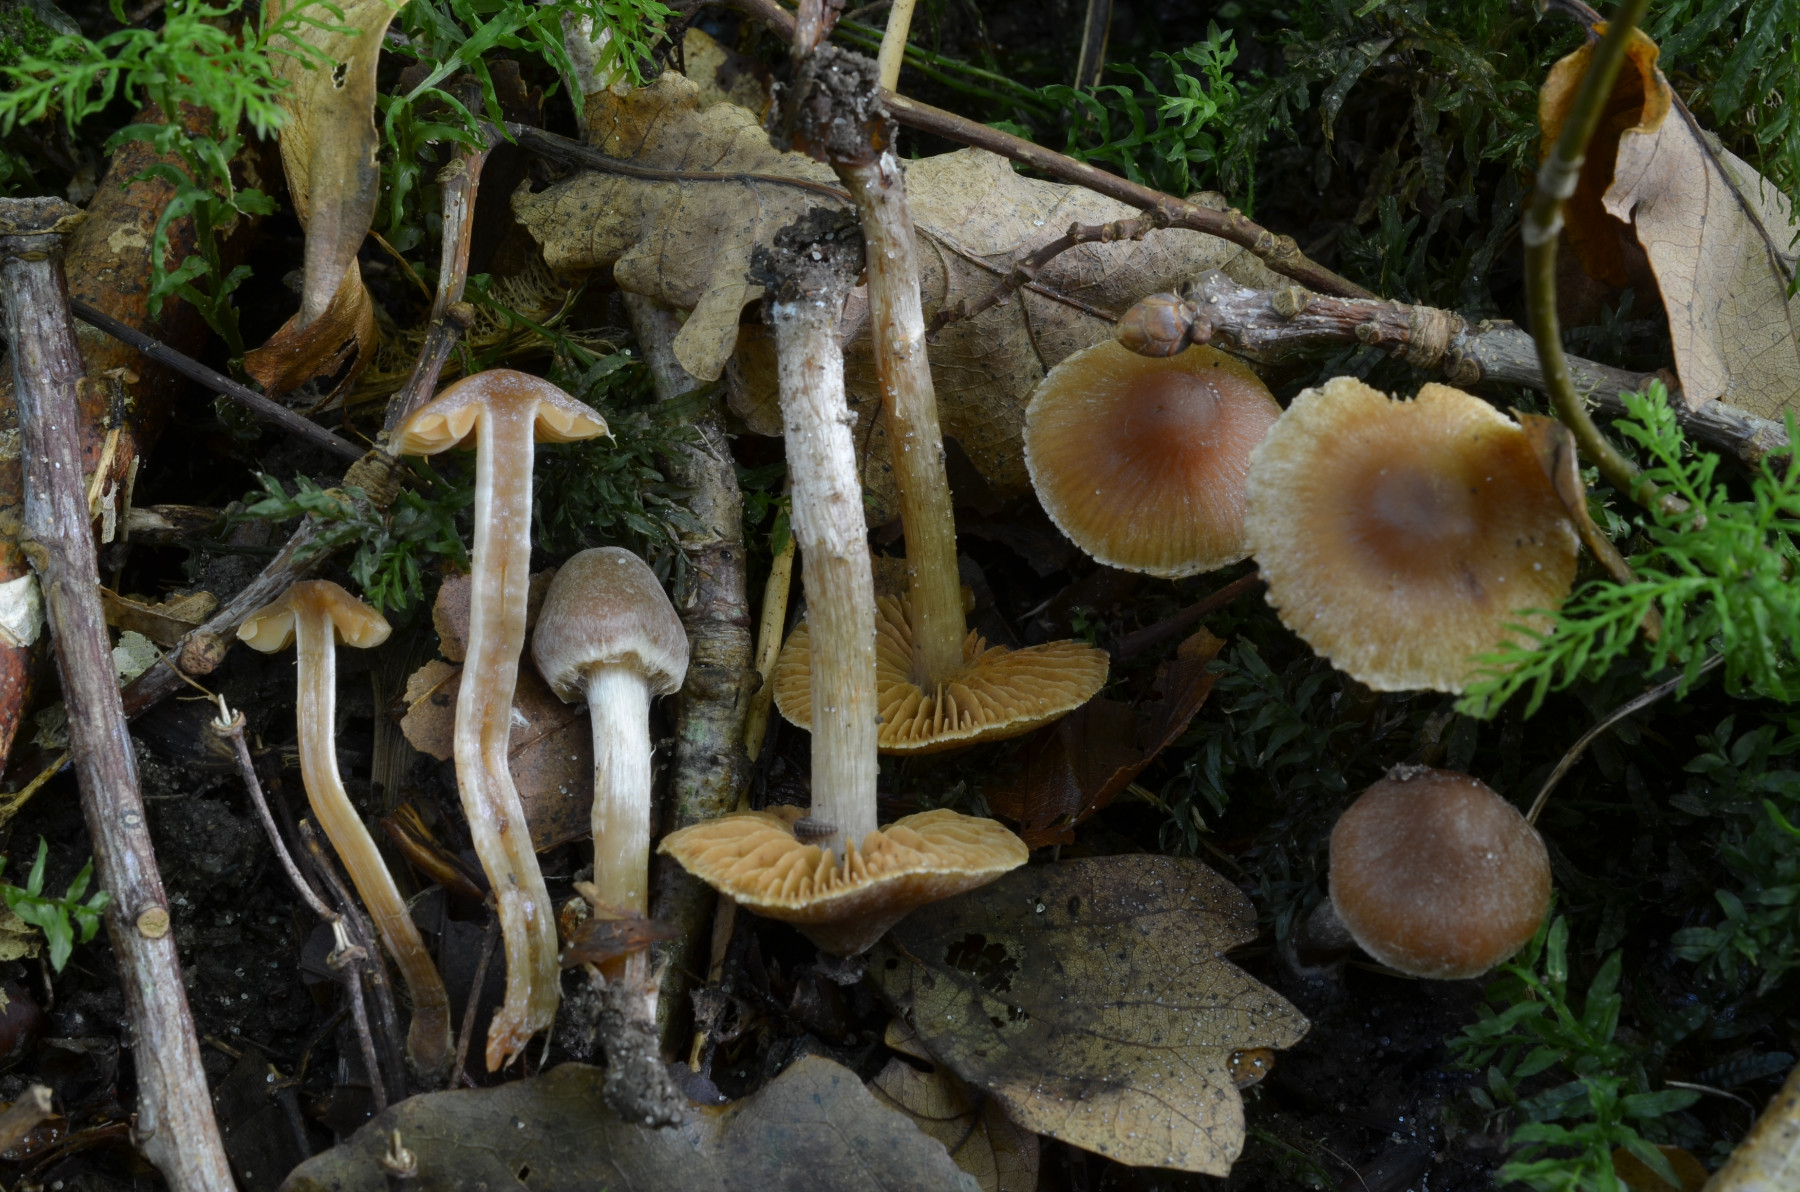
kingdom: Fungi
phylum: Basidiomycota
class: Agaricomycetes
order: Agaricales
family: Cortinariaceae
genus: Cortinarius
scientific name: Cortinarius incisior
